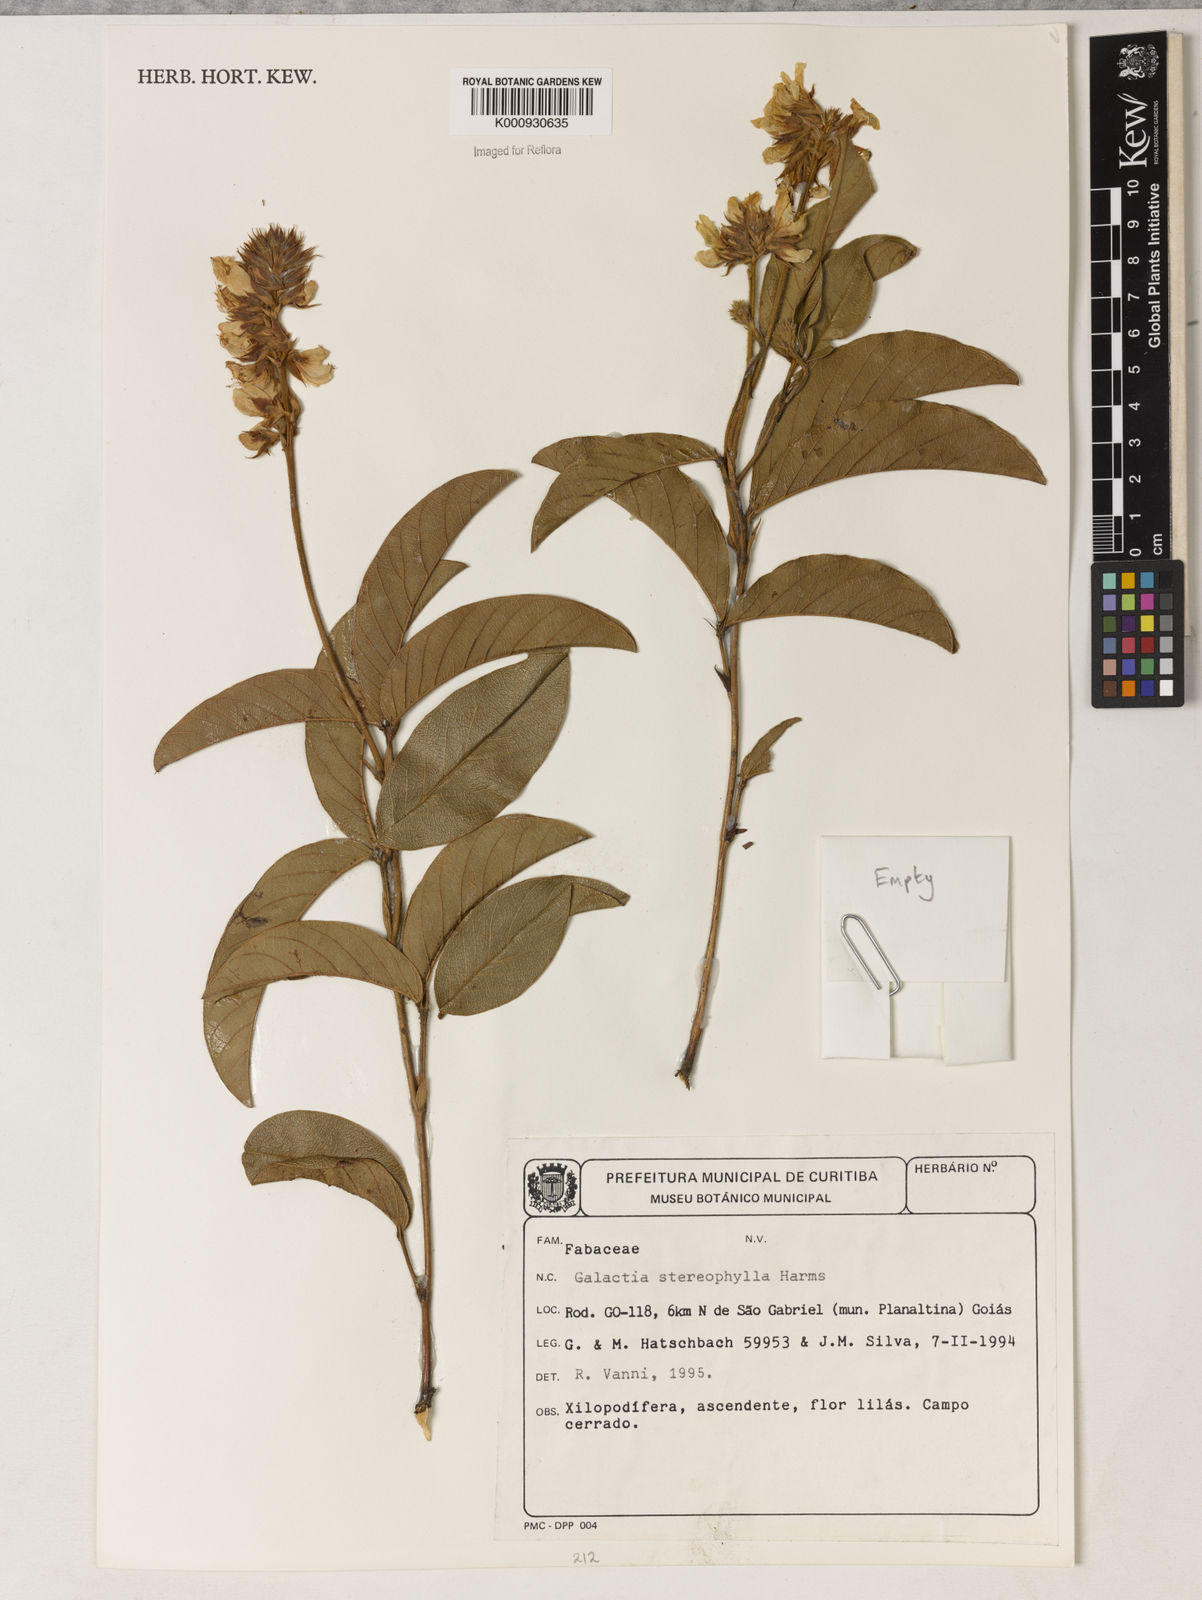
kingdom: Plantae
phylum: Tracheophyta
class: Magnoliopsida
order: Fabales
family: Fabaceae
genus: Betencourtia
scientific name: Betencourtia stereophylla
